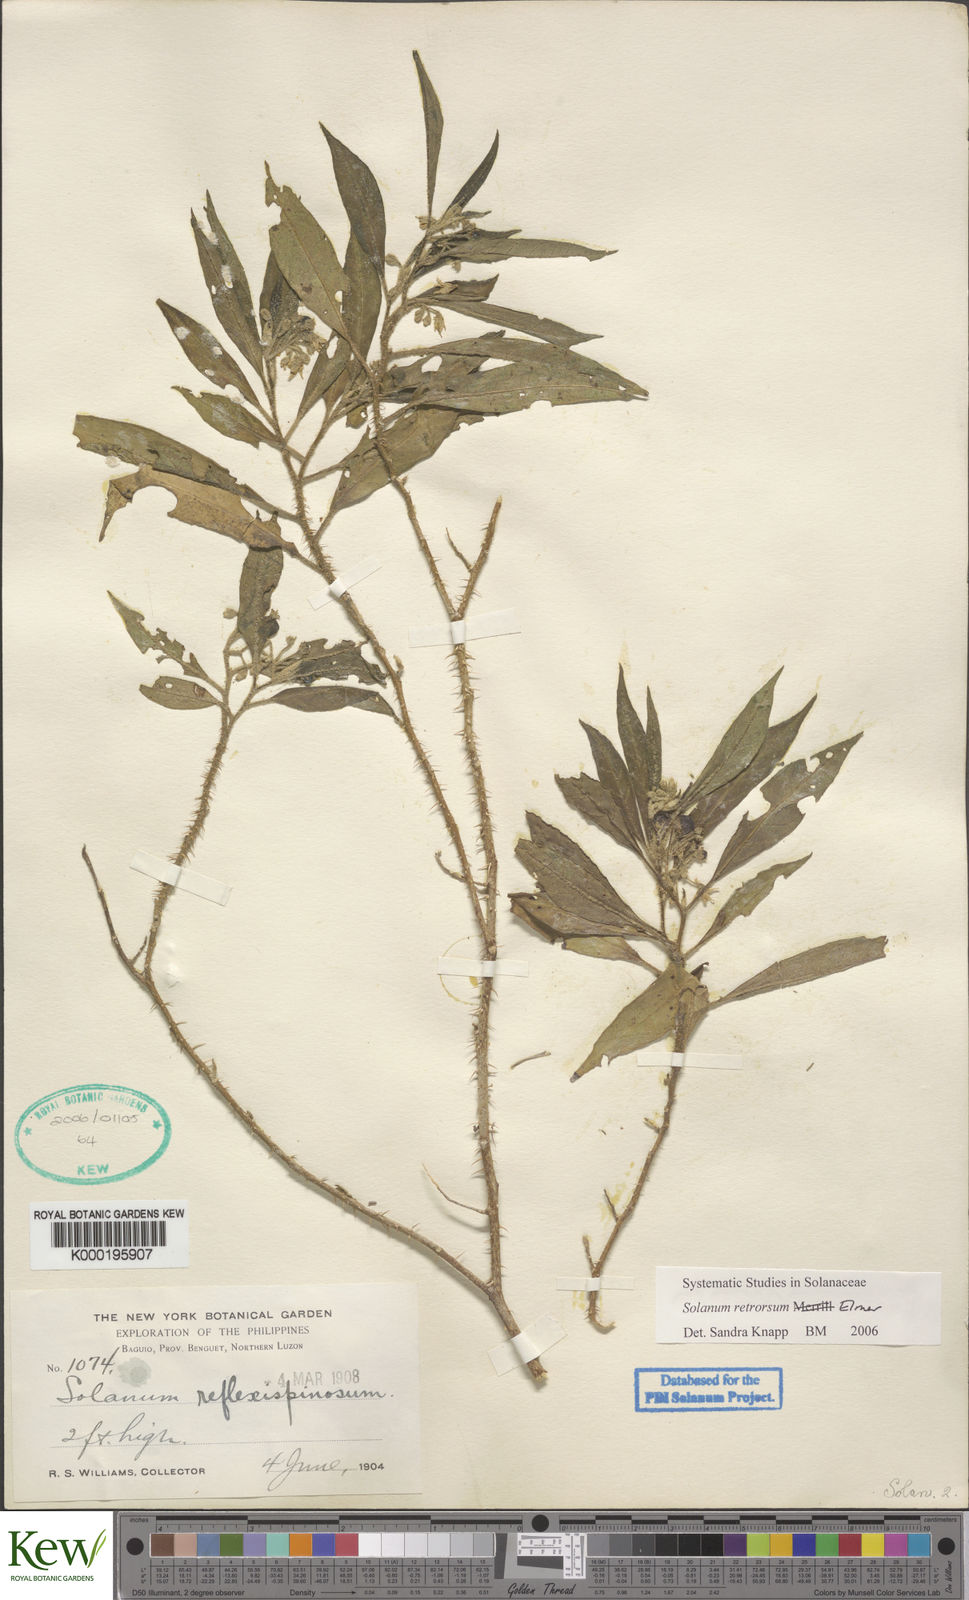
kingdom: Plantae
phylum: Tracheophyta
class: Magnoliopsida
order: Solanales
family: Solanaceae
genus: Solanum
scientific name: Solanum retrorsum
